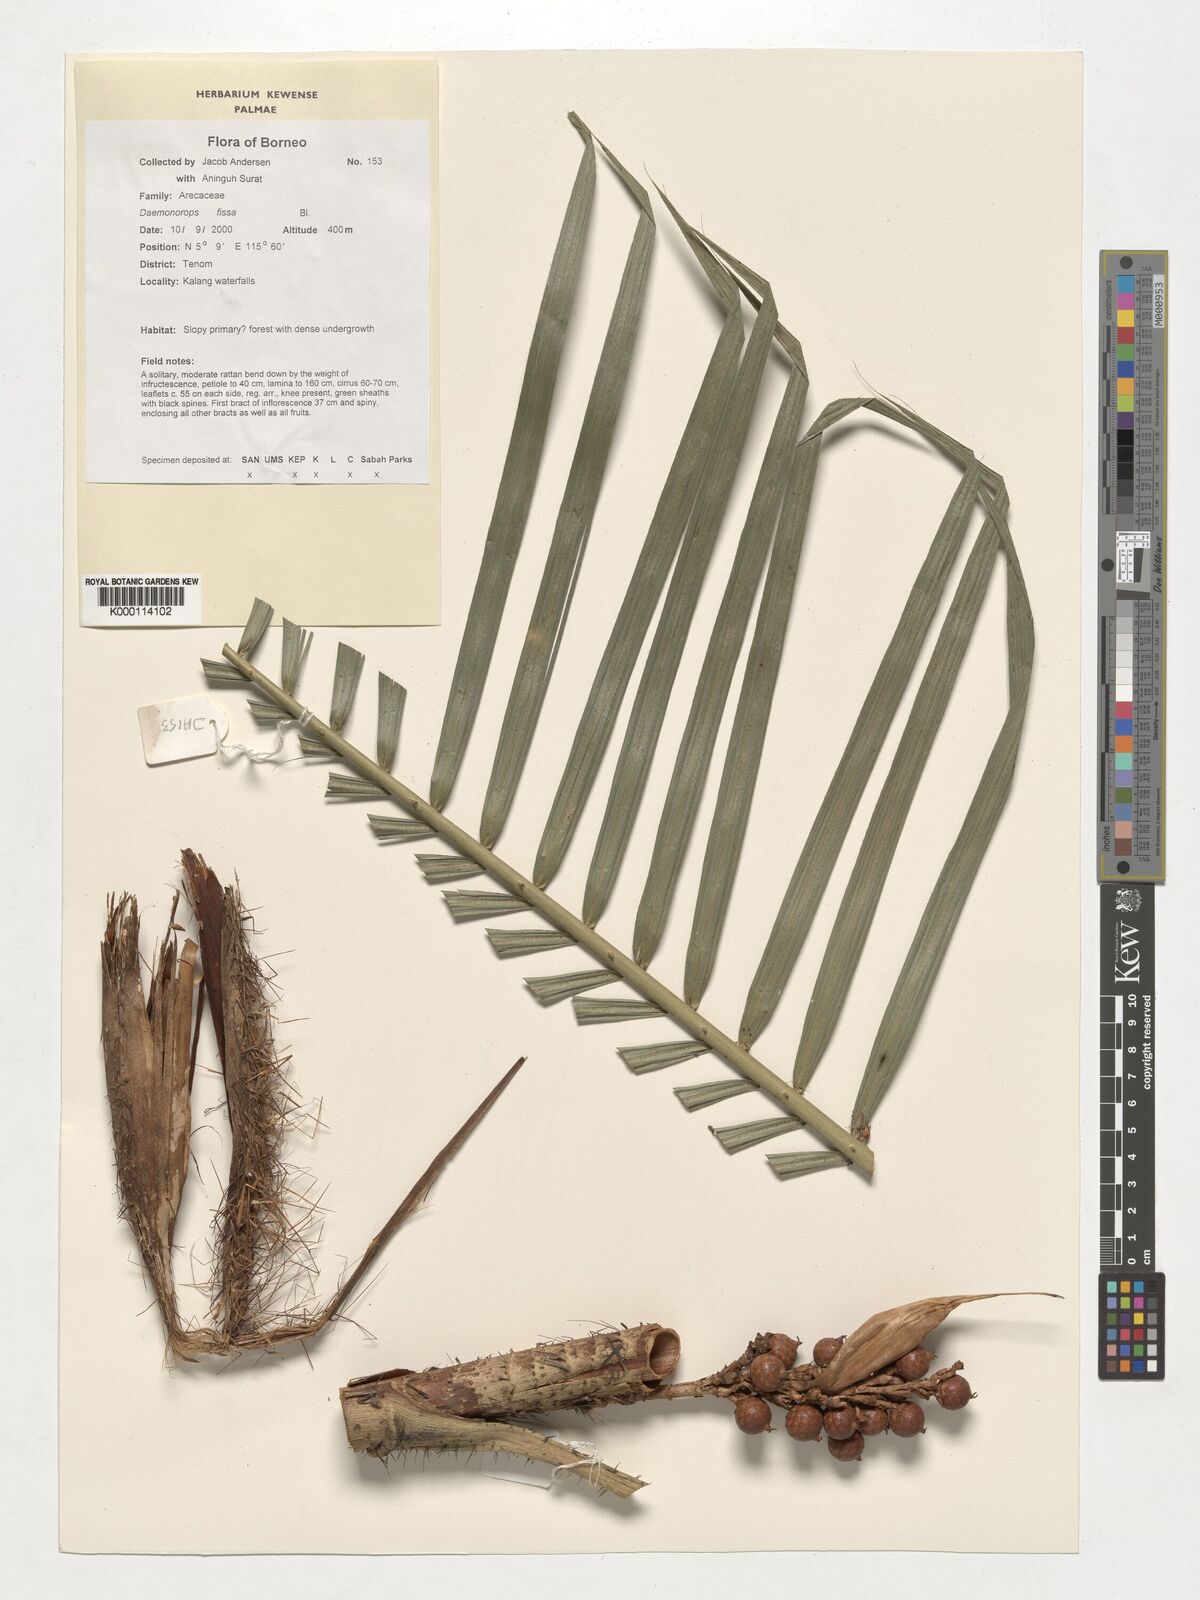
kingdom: Plantae
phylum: Tracheophyta
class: Liliopsida
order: Arecales
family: Arecaceae
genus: Calamus
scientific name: Calamus melanochaetes
